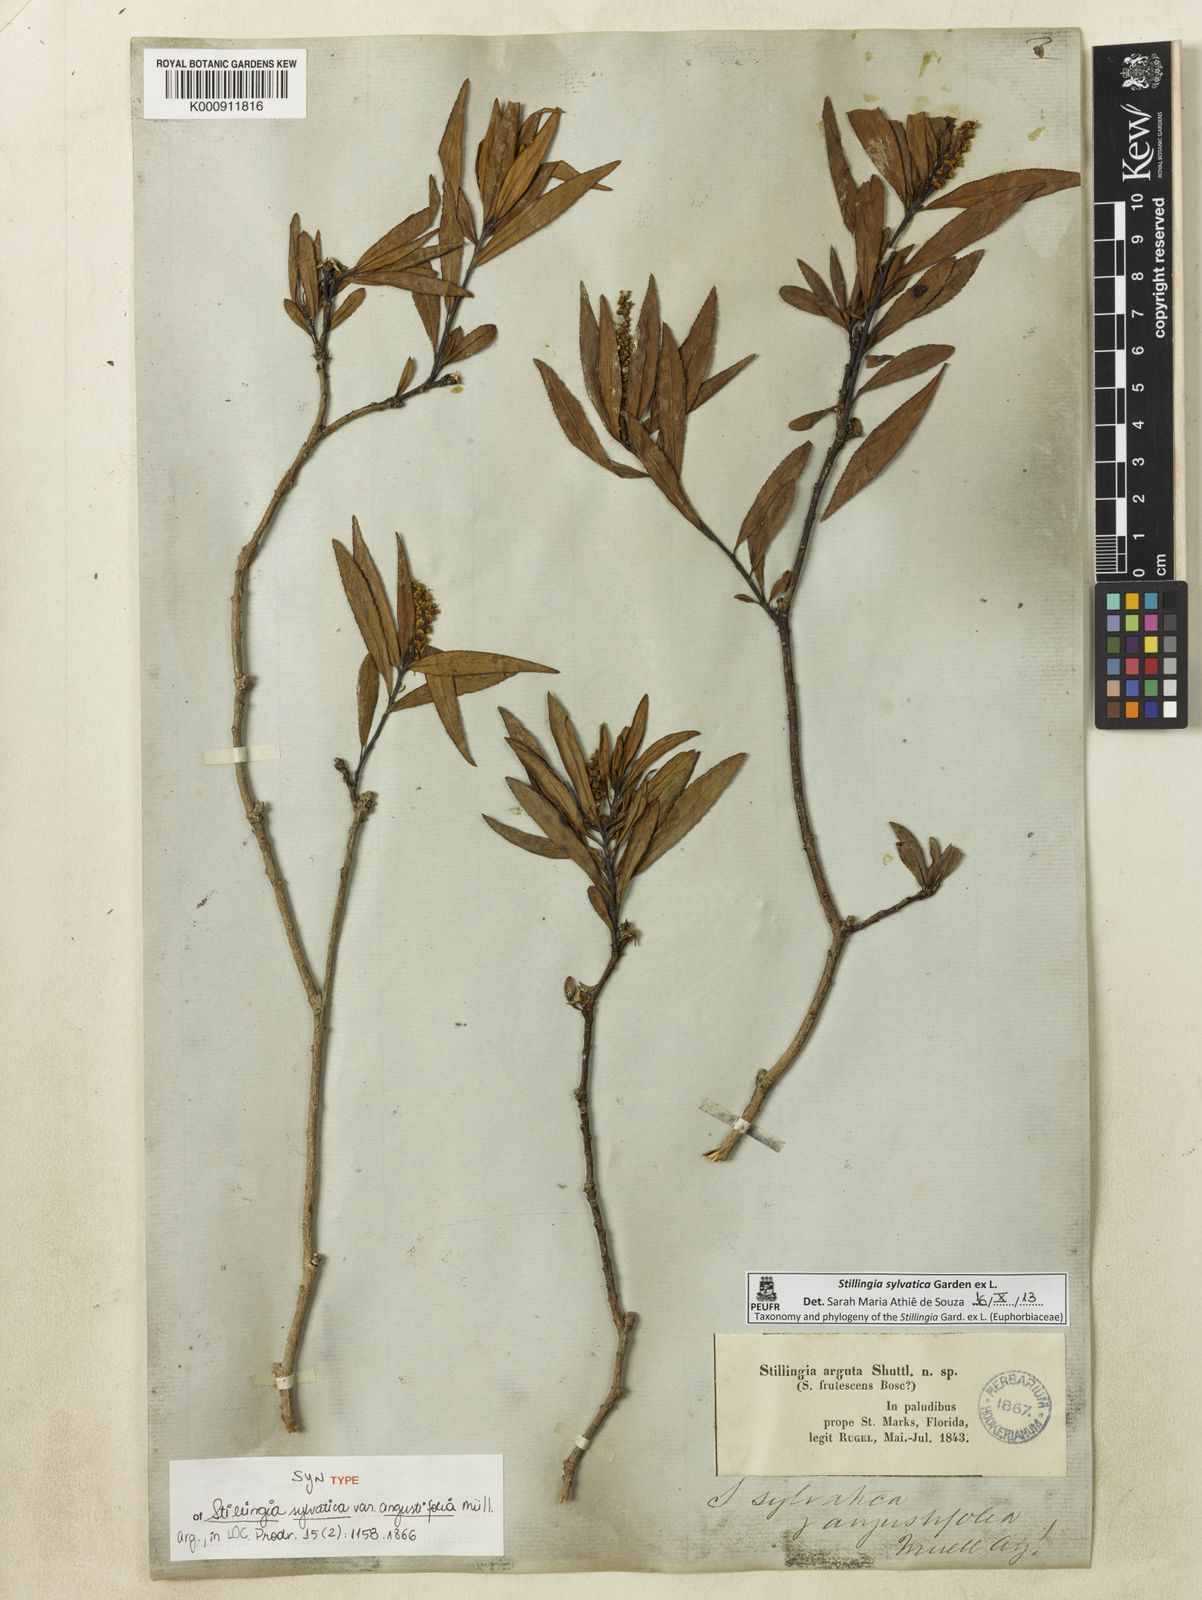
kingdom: Plantae
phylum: Tracheophyta
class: Magnoliopsida
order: Malpighiales
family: Euphorbiaceae
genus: Stillingia
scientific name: Stillingia sylvatica
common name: Queen's-delight
